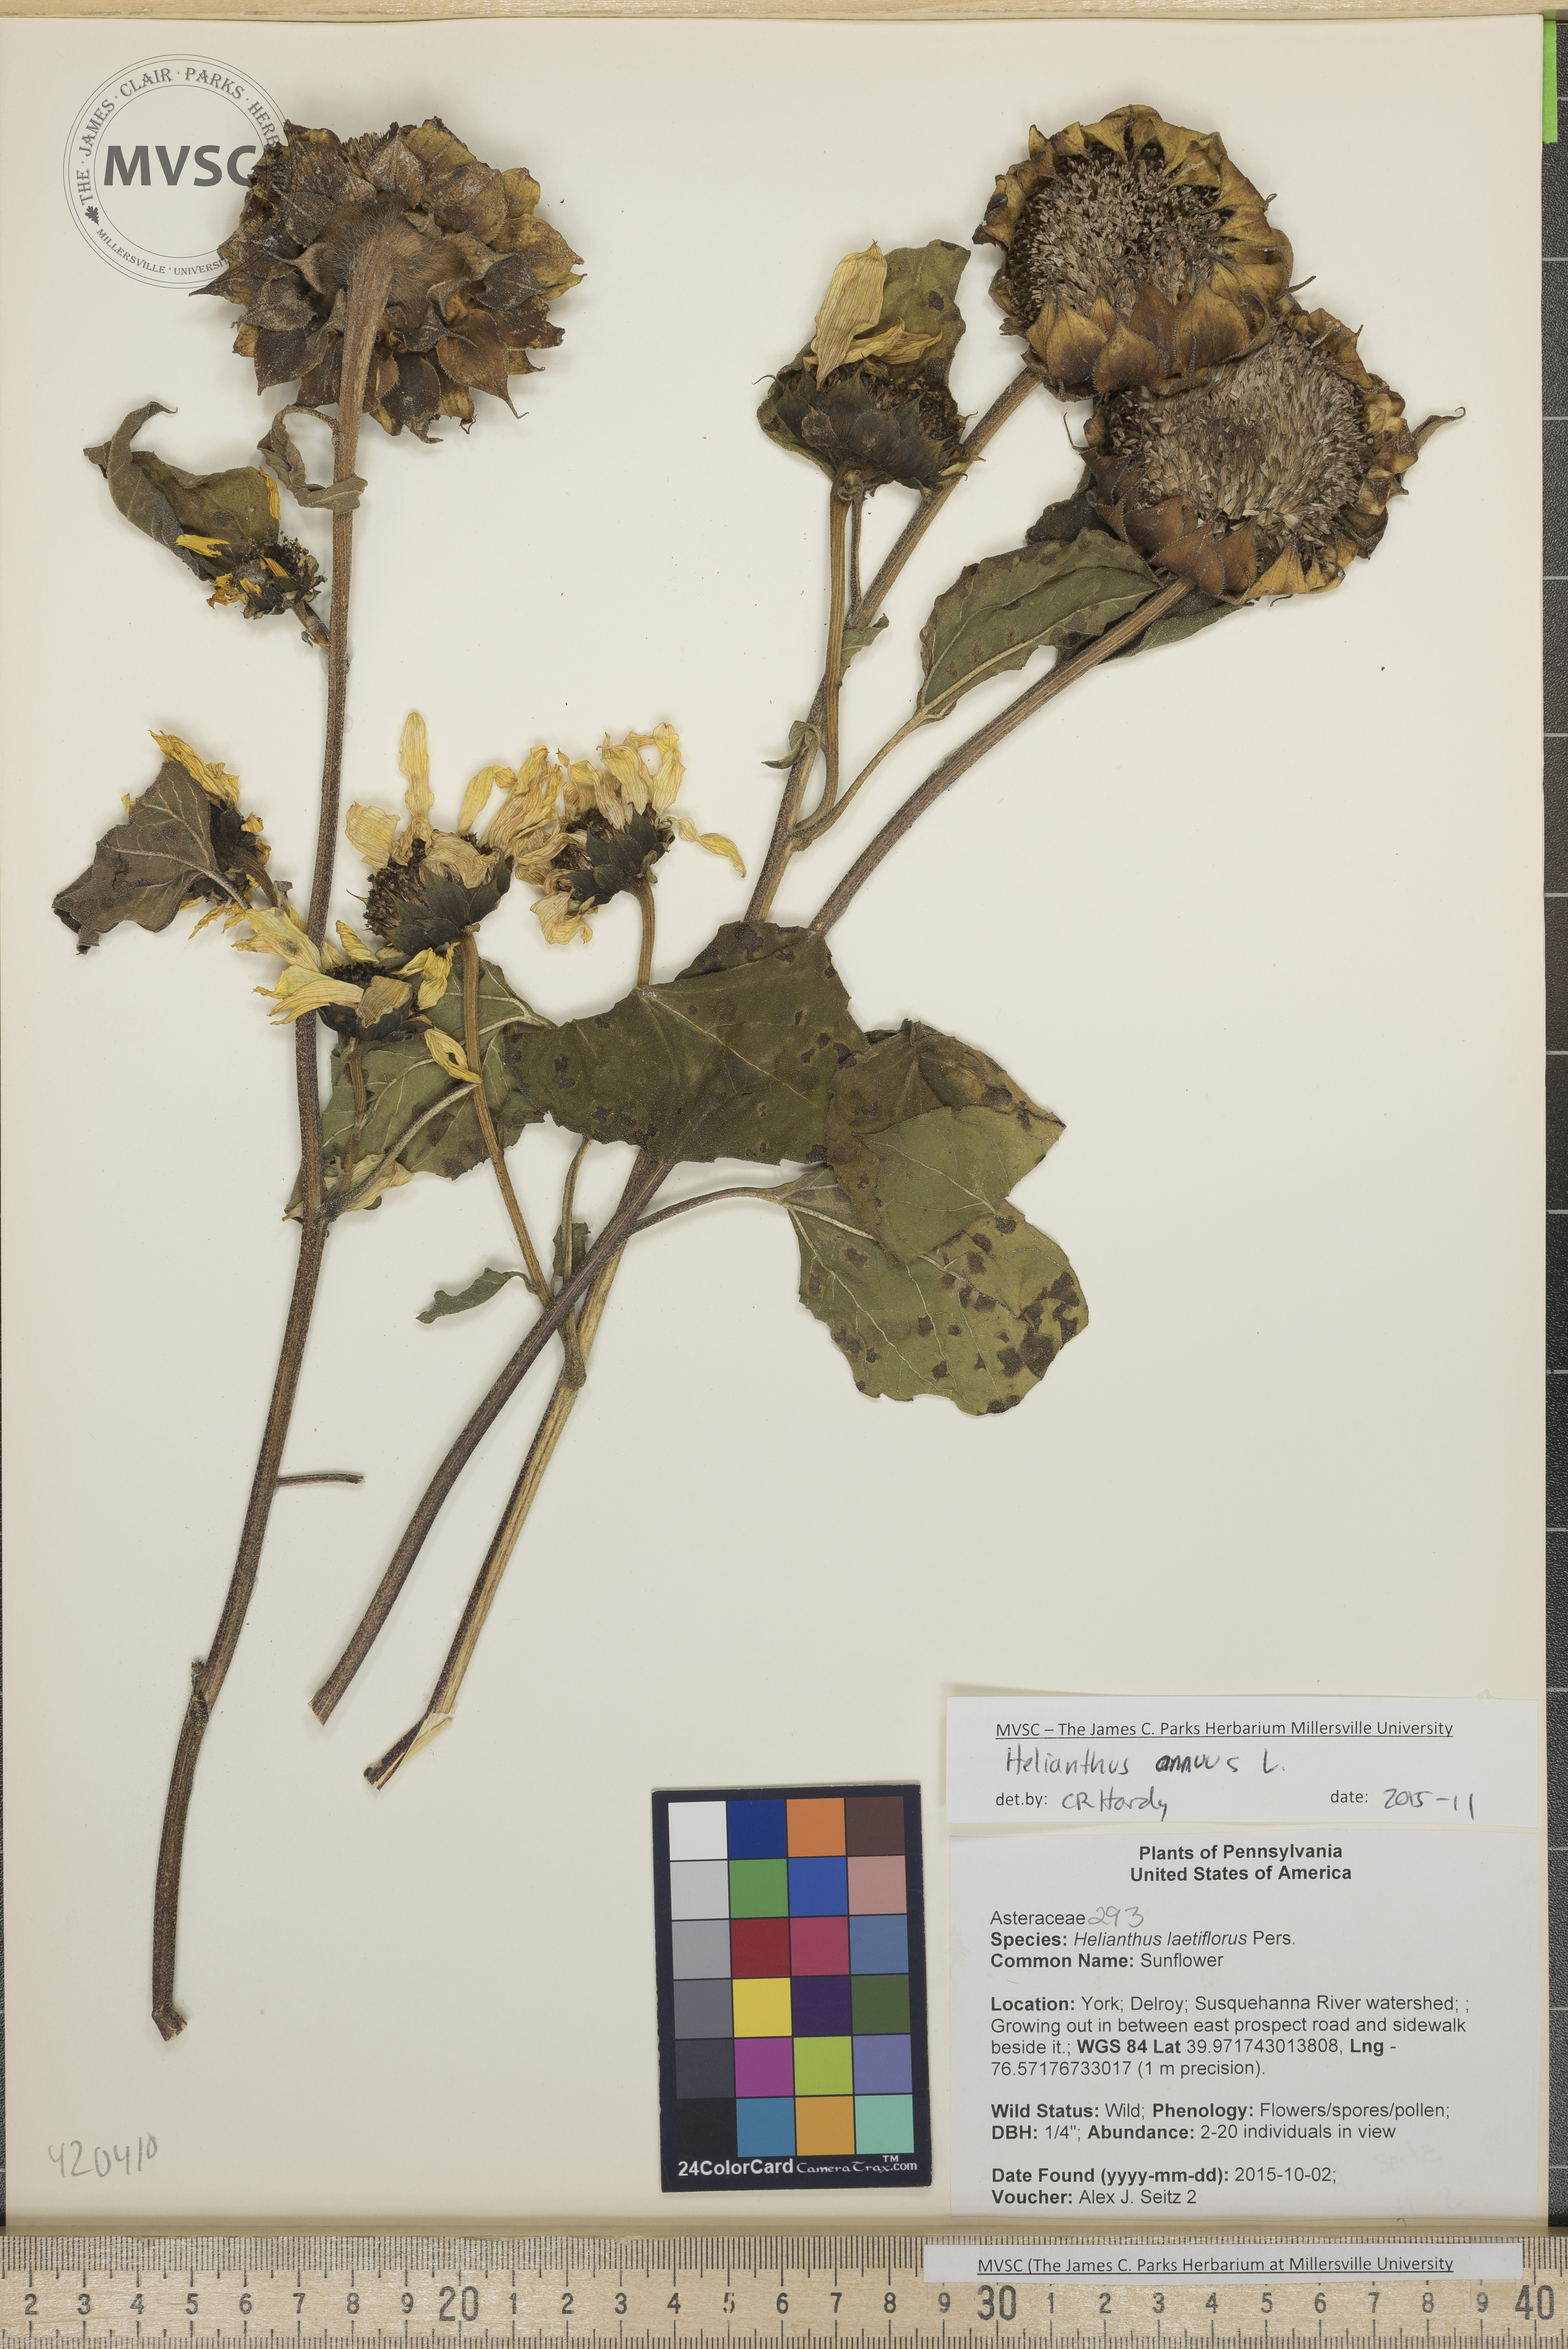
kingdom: Plantae
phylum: Tracheophyta
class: Magnoliopsida
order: Asterales
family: Asteraceae
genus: Helianthus
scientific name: Helianthus annuus
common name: Sunflower
